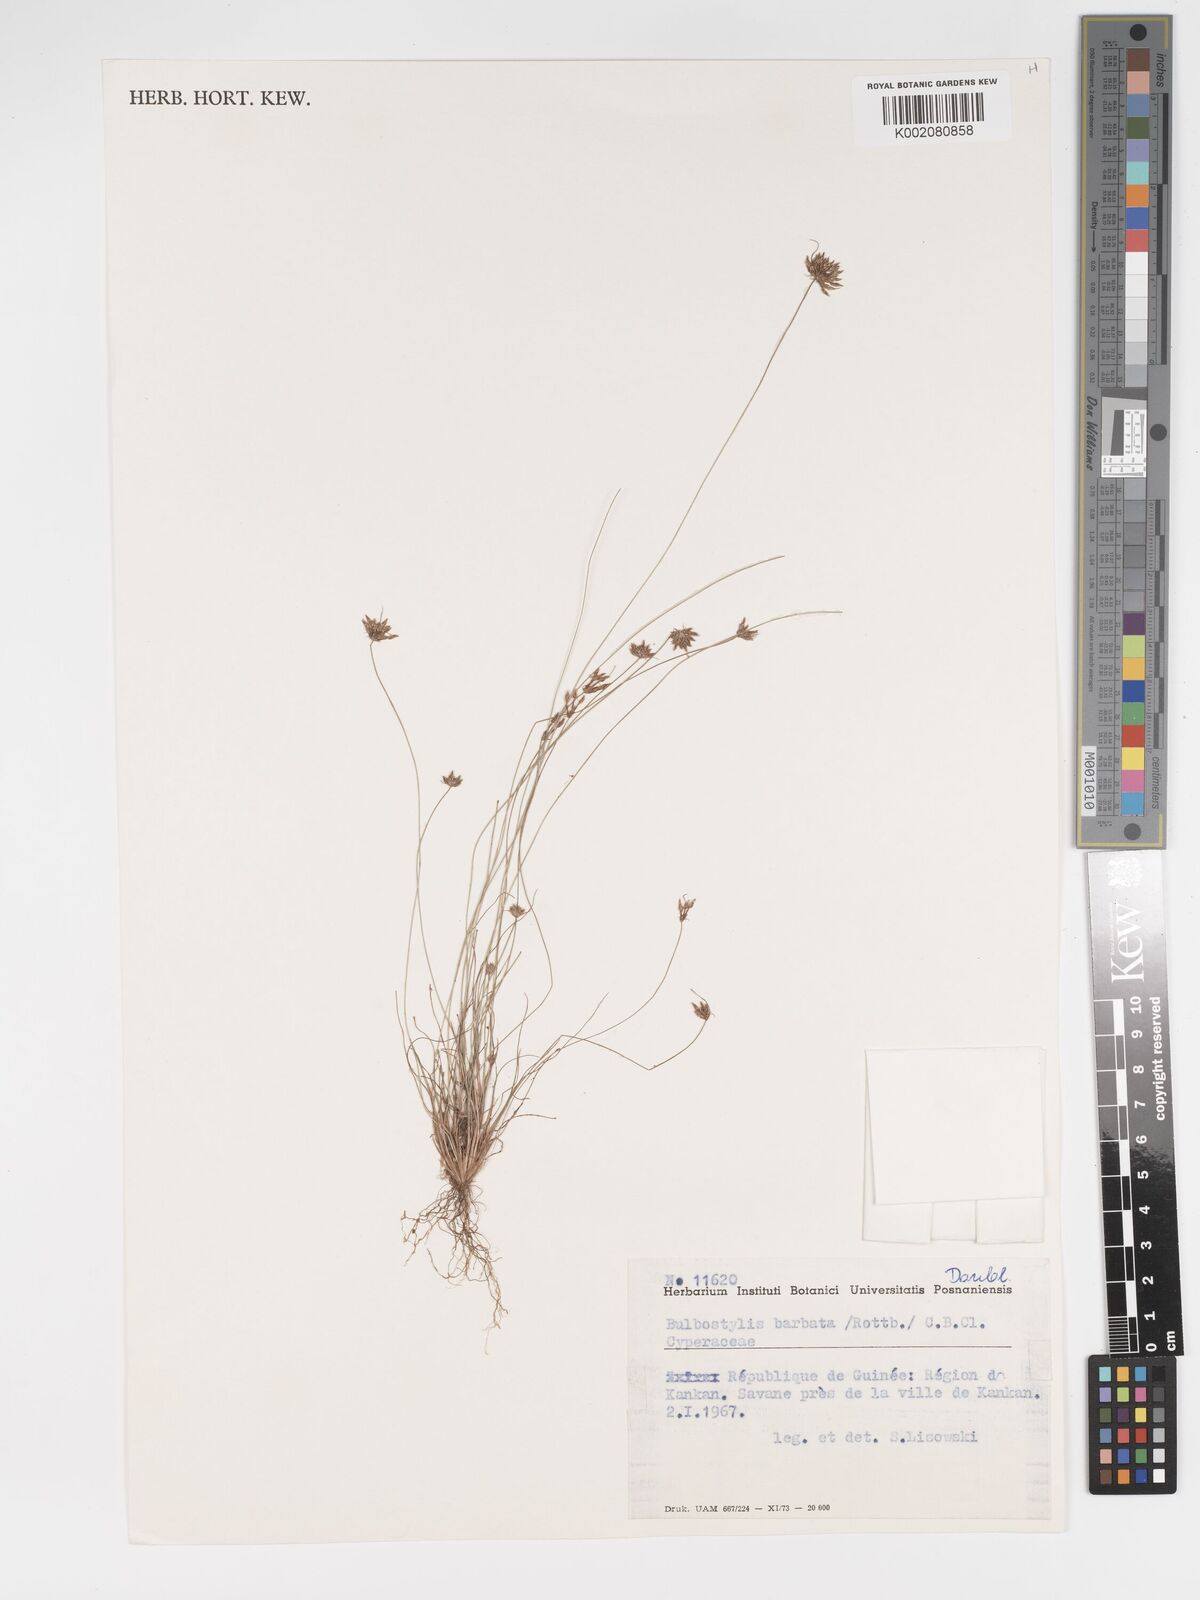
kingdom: Plantae
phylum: Tracheophyta
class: Liliopsida
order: Poales
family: Cyperaceae
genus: Bulbostylis
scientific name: Bulbostylis barbata
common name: Watergrass
